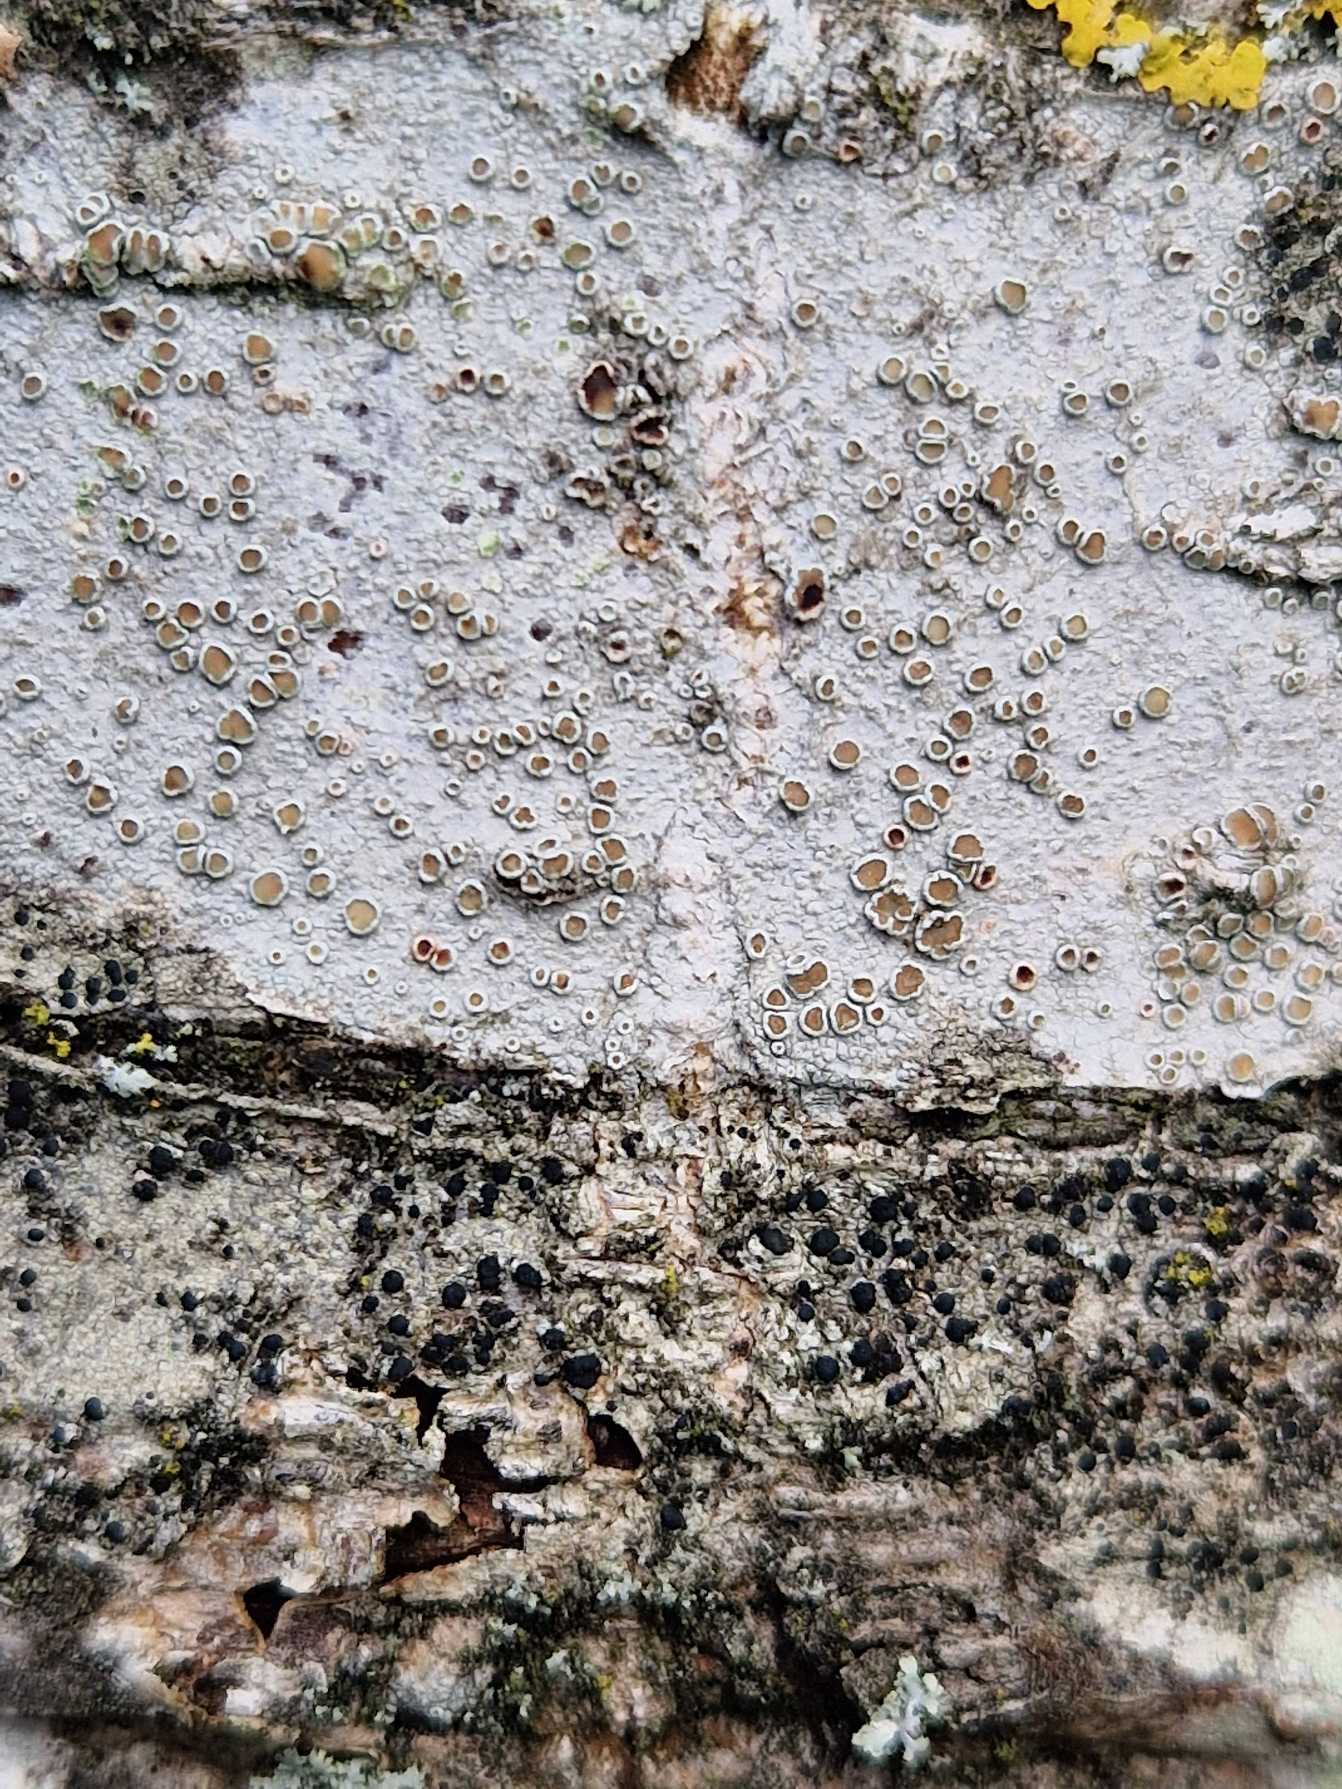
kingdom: Fungi
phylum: Ascomycota
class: Lecanoromycetes
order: Lecanorales
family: Lecanoraceae
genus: Lecanora
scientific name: Lecanora chlarotera
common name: Brun kantskivelav
